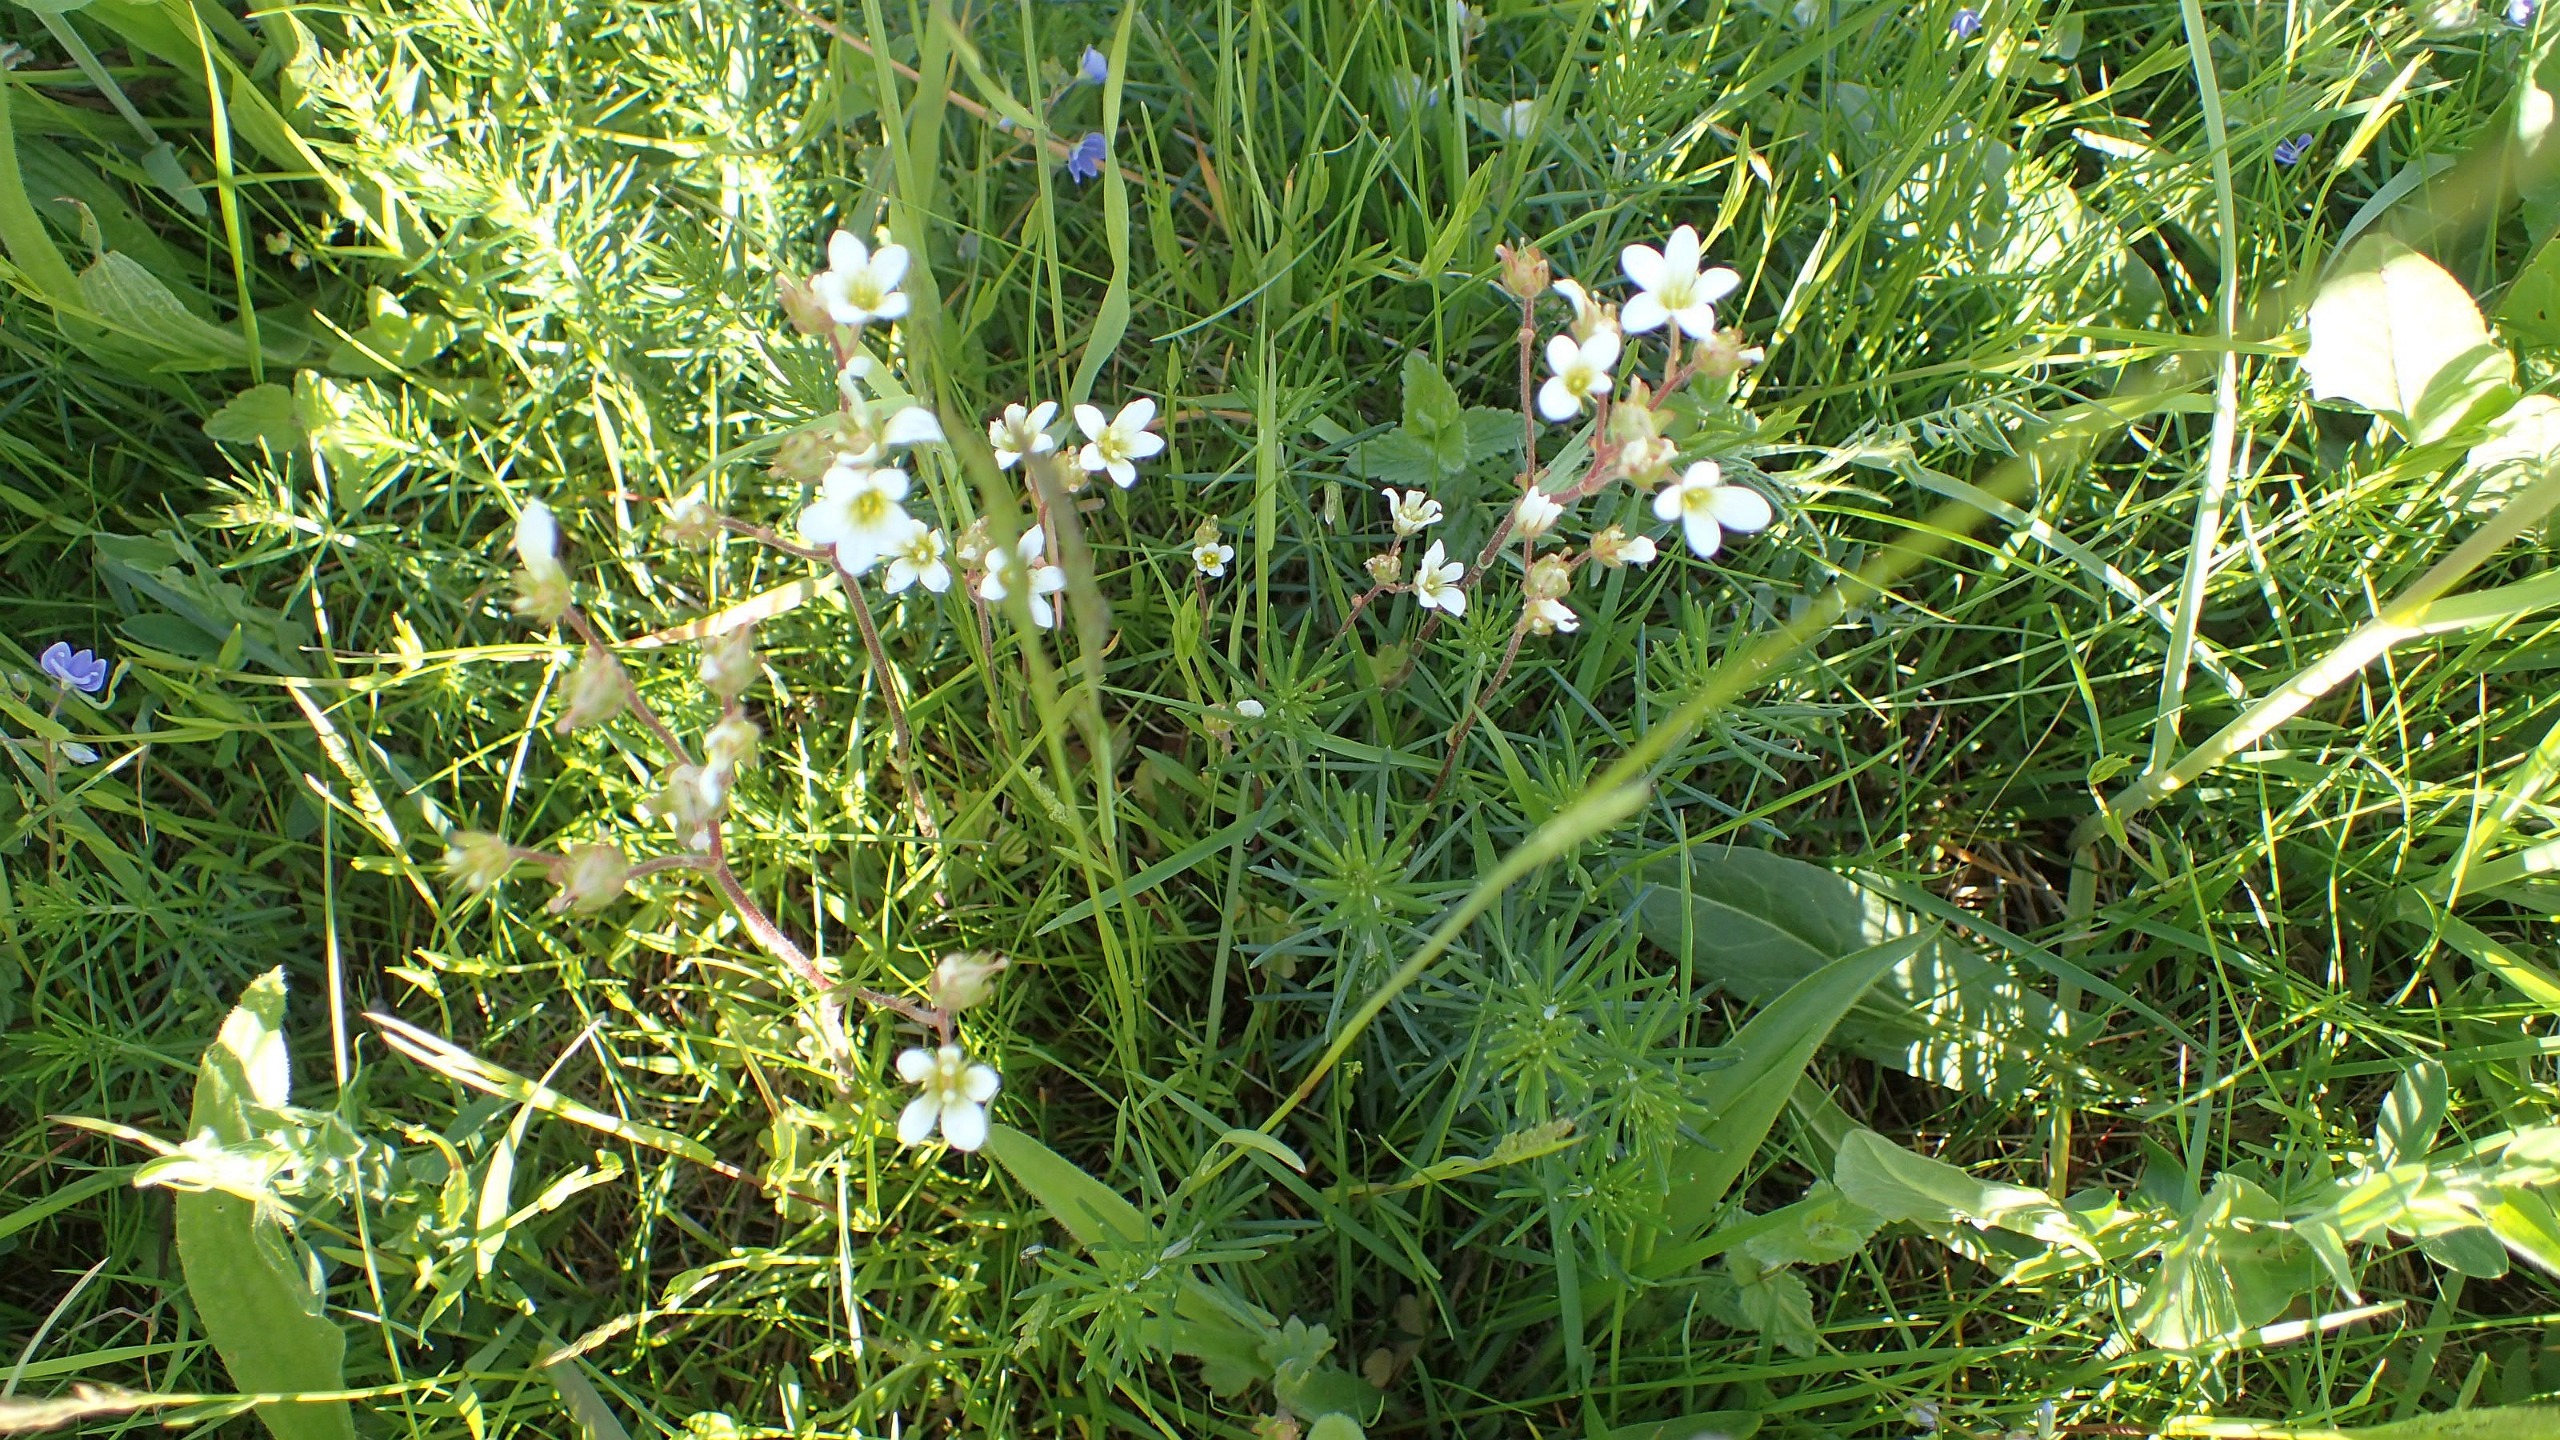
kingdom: Plantae
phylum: Tracheophyta
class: Magnoliopsida
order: Saxifragales
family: Saxifragaceae
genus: Saxifraga
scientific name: Saxifraga granulata
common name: Kornet stenbræk
